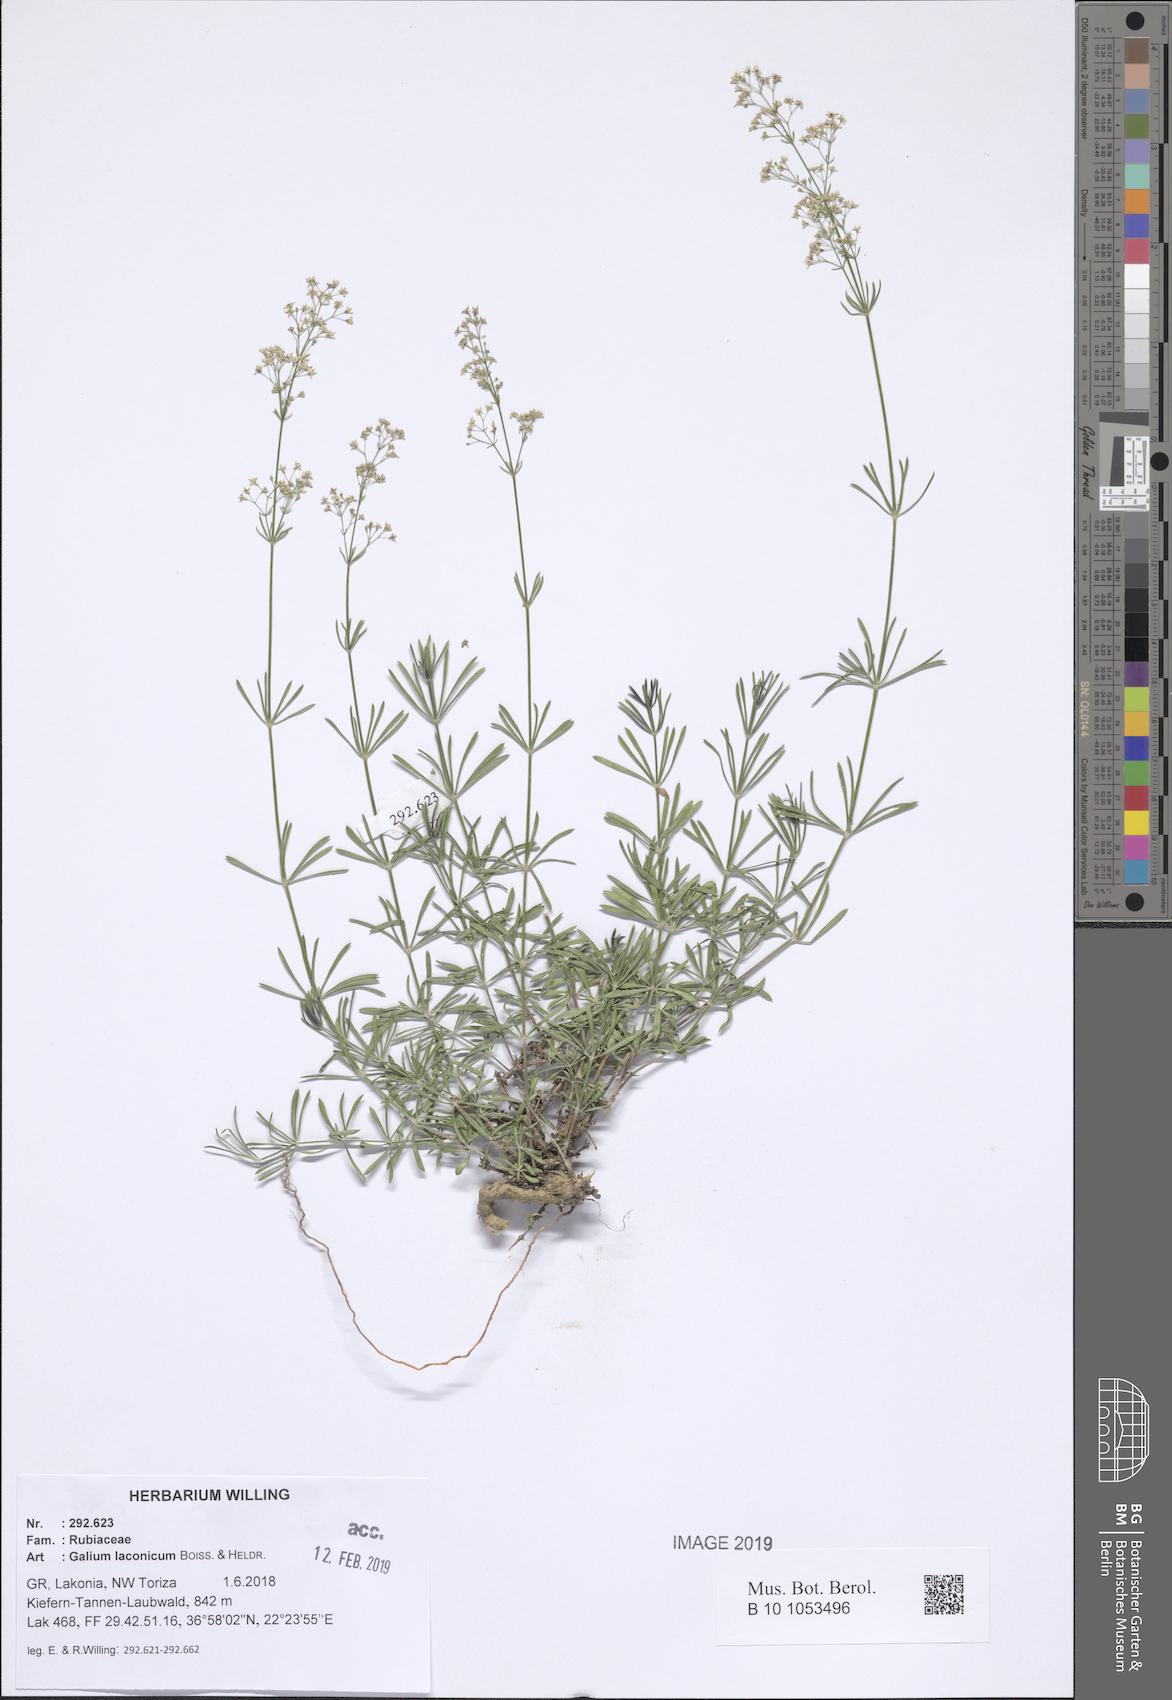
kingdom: Plantae
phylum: Tracheophyta
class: Magnoliopsida
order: Gentianales
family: Rubiaceae
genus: Galium
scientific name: Galium laconicum
